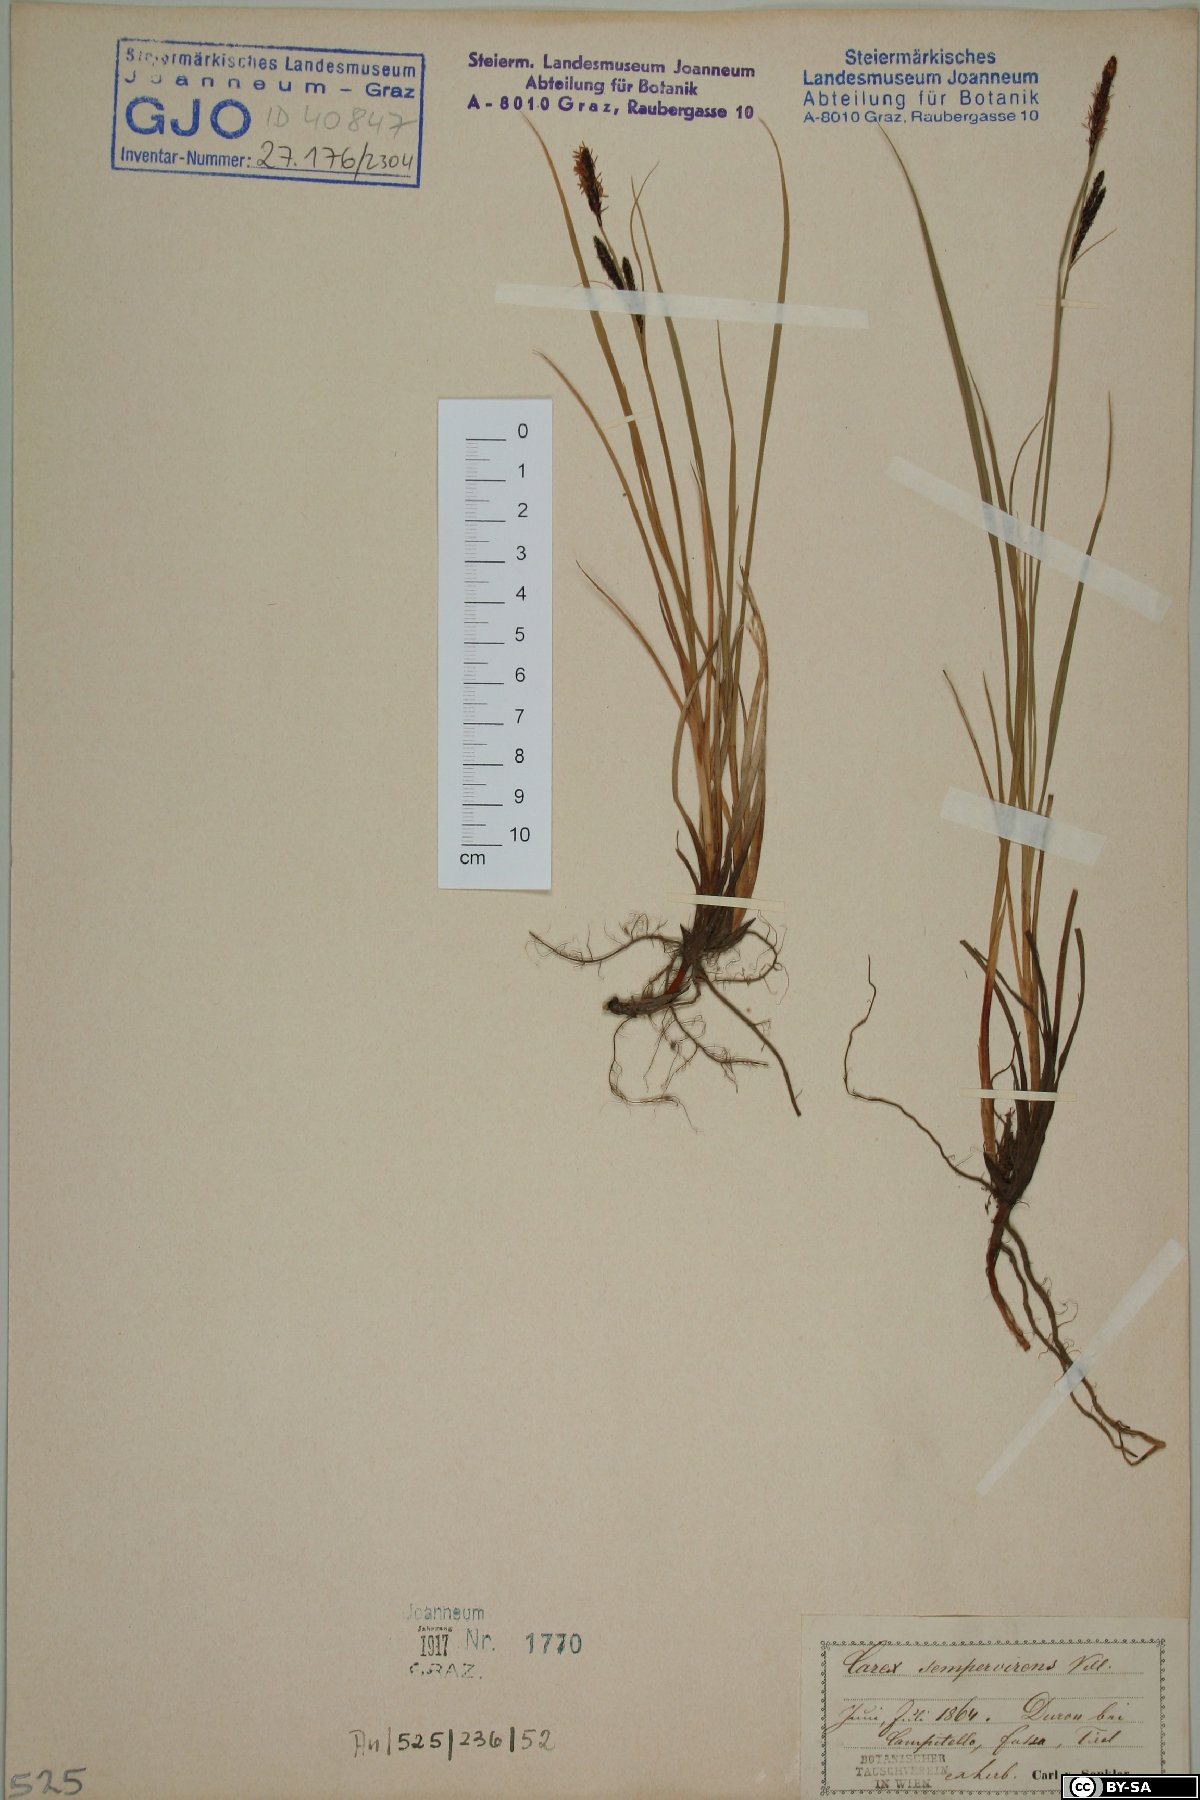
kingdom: Plantae
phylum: Tracheophyta
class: Liliopsida
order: Poales
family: Cyperaceae
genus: Carex
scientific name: Carex sempervirens
